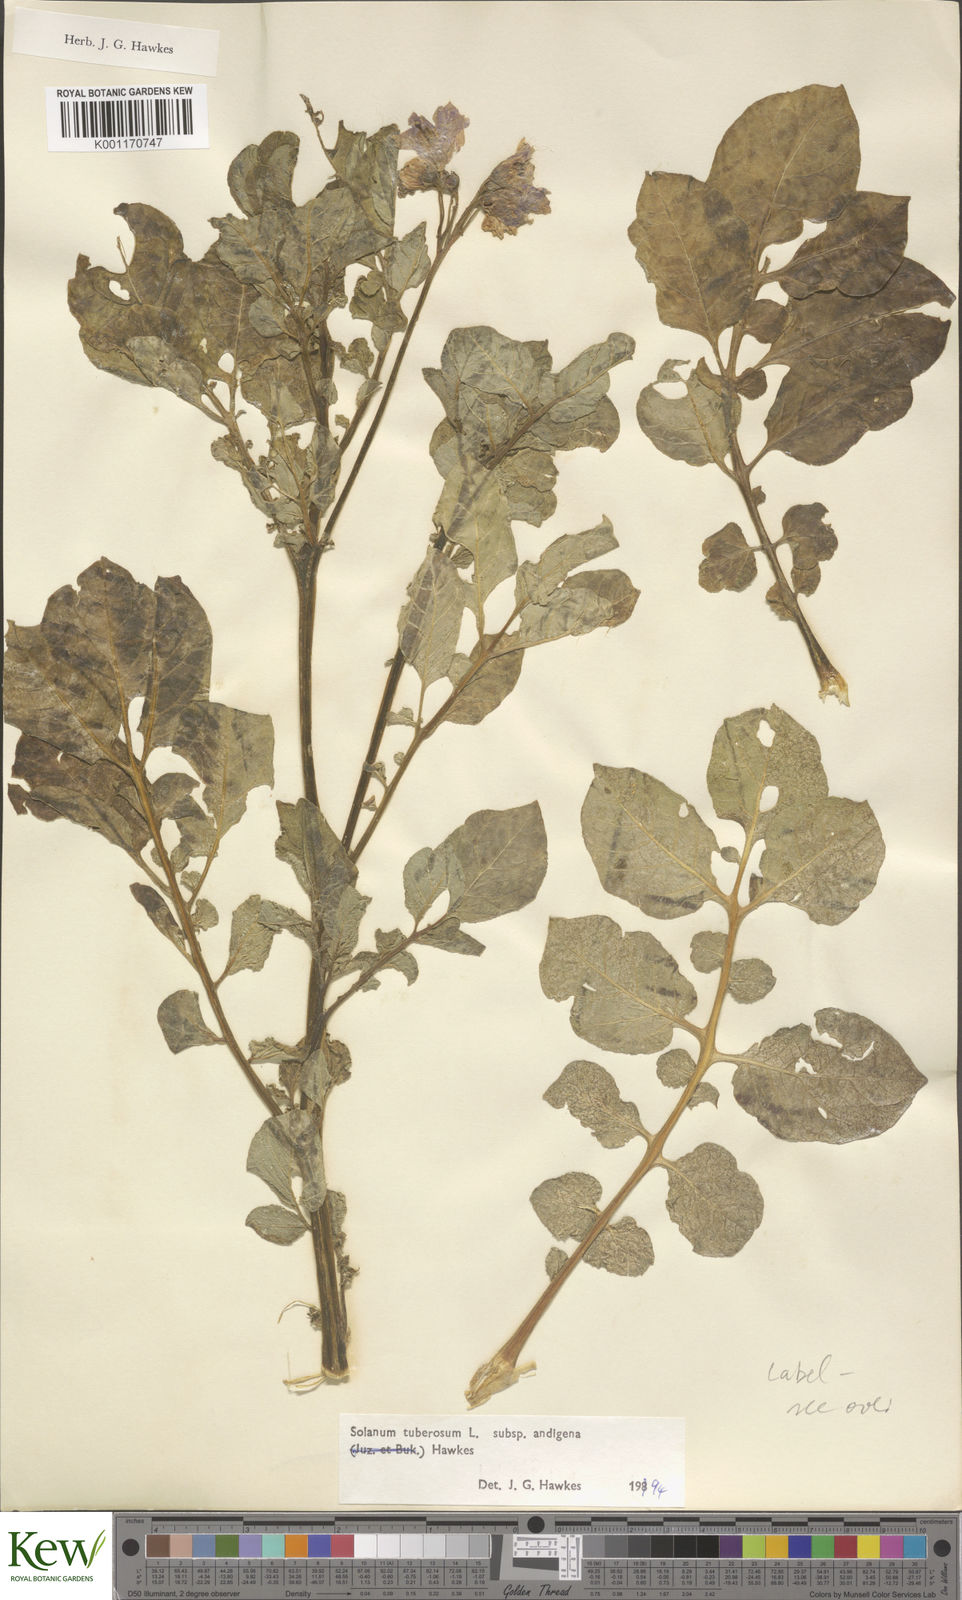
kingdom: Plantae
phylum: Tracheophyta
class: Magnoliopsida
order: Solanales
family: Solanaceae
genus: Solanum
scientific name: Solanum tuberosum
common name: Potato
